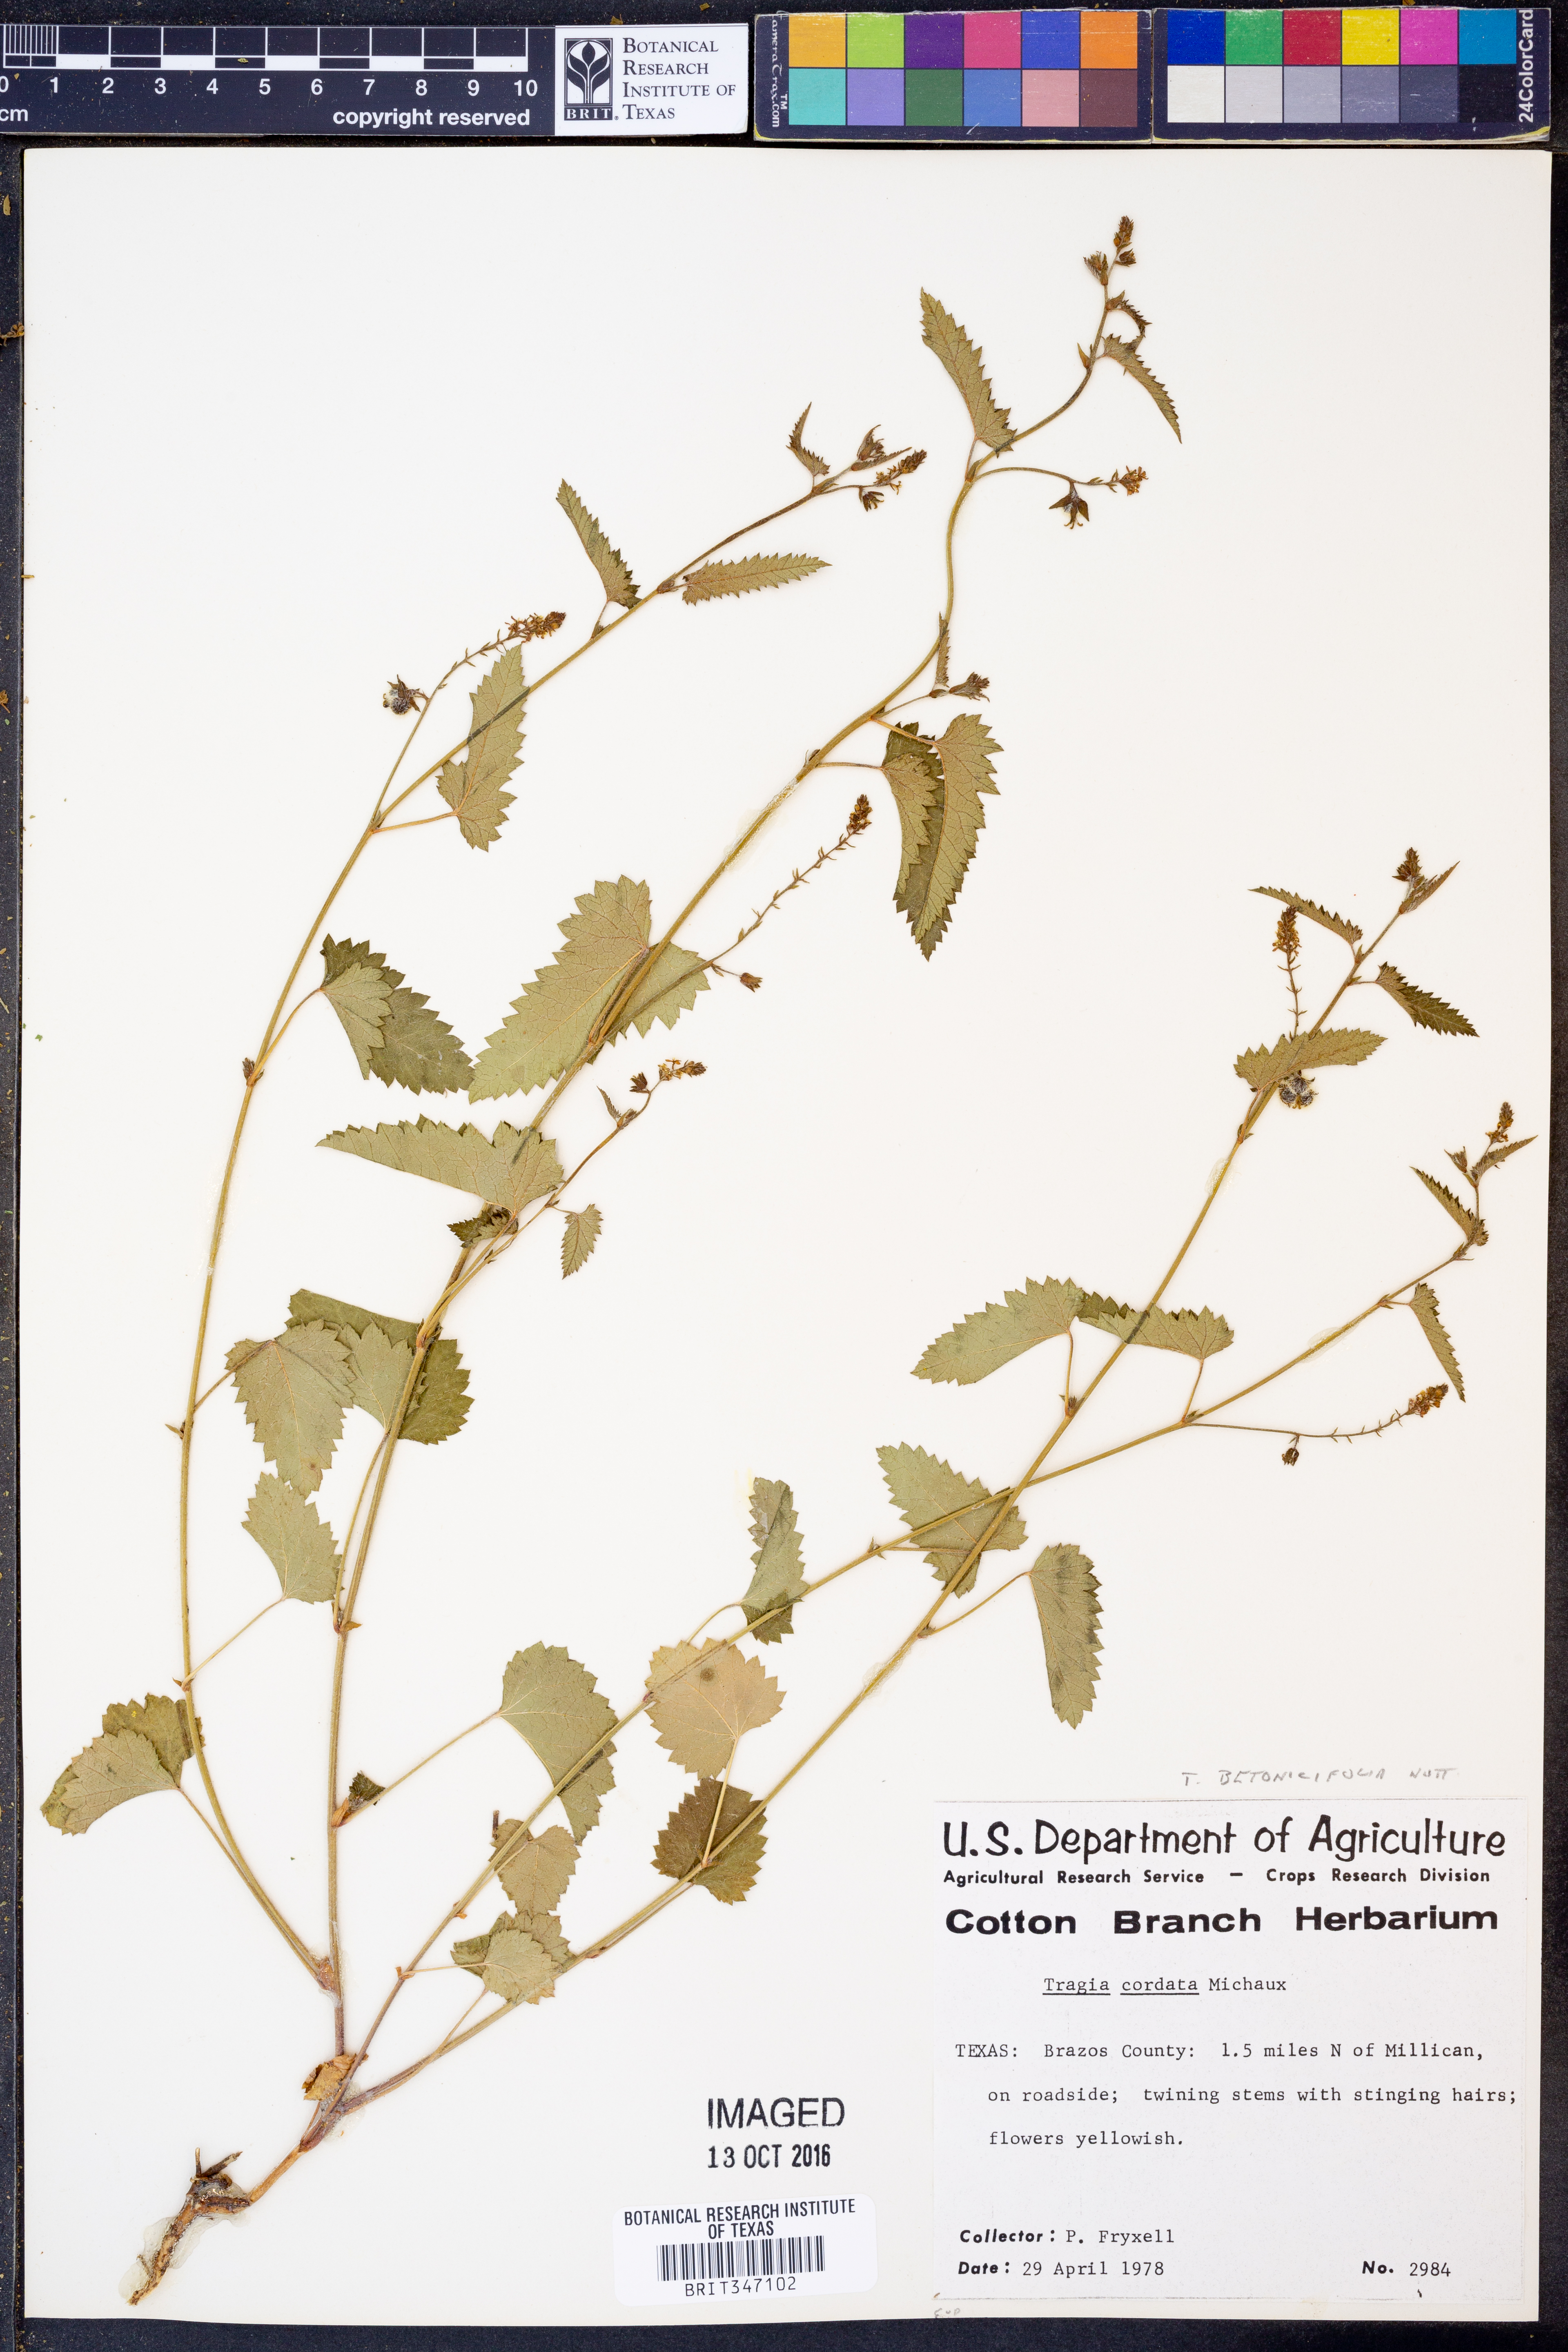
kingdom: Plantae
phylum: Tracheophyta
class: Magnoliopsida
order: Malpighiales
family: Euphorbiaceae
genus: Tragia
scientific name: Tragia betonicifolia
